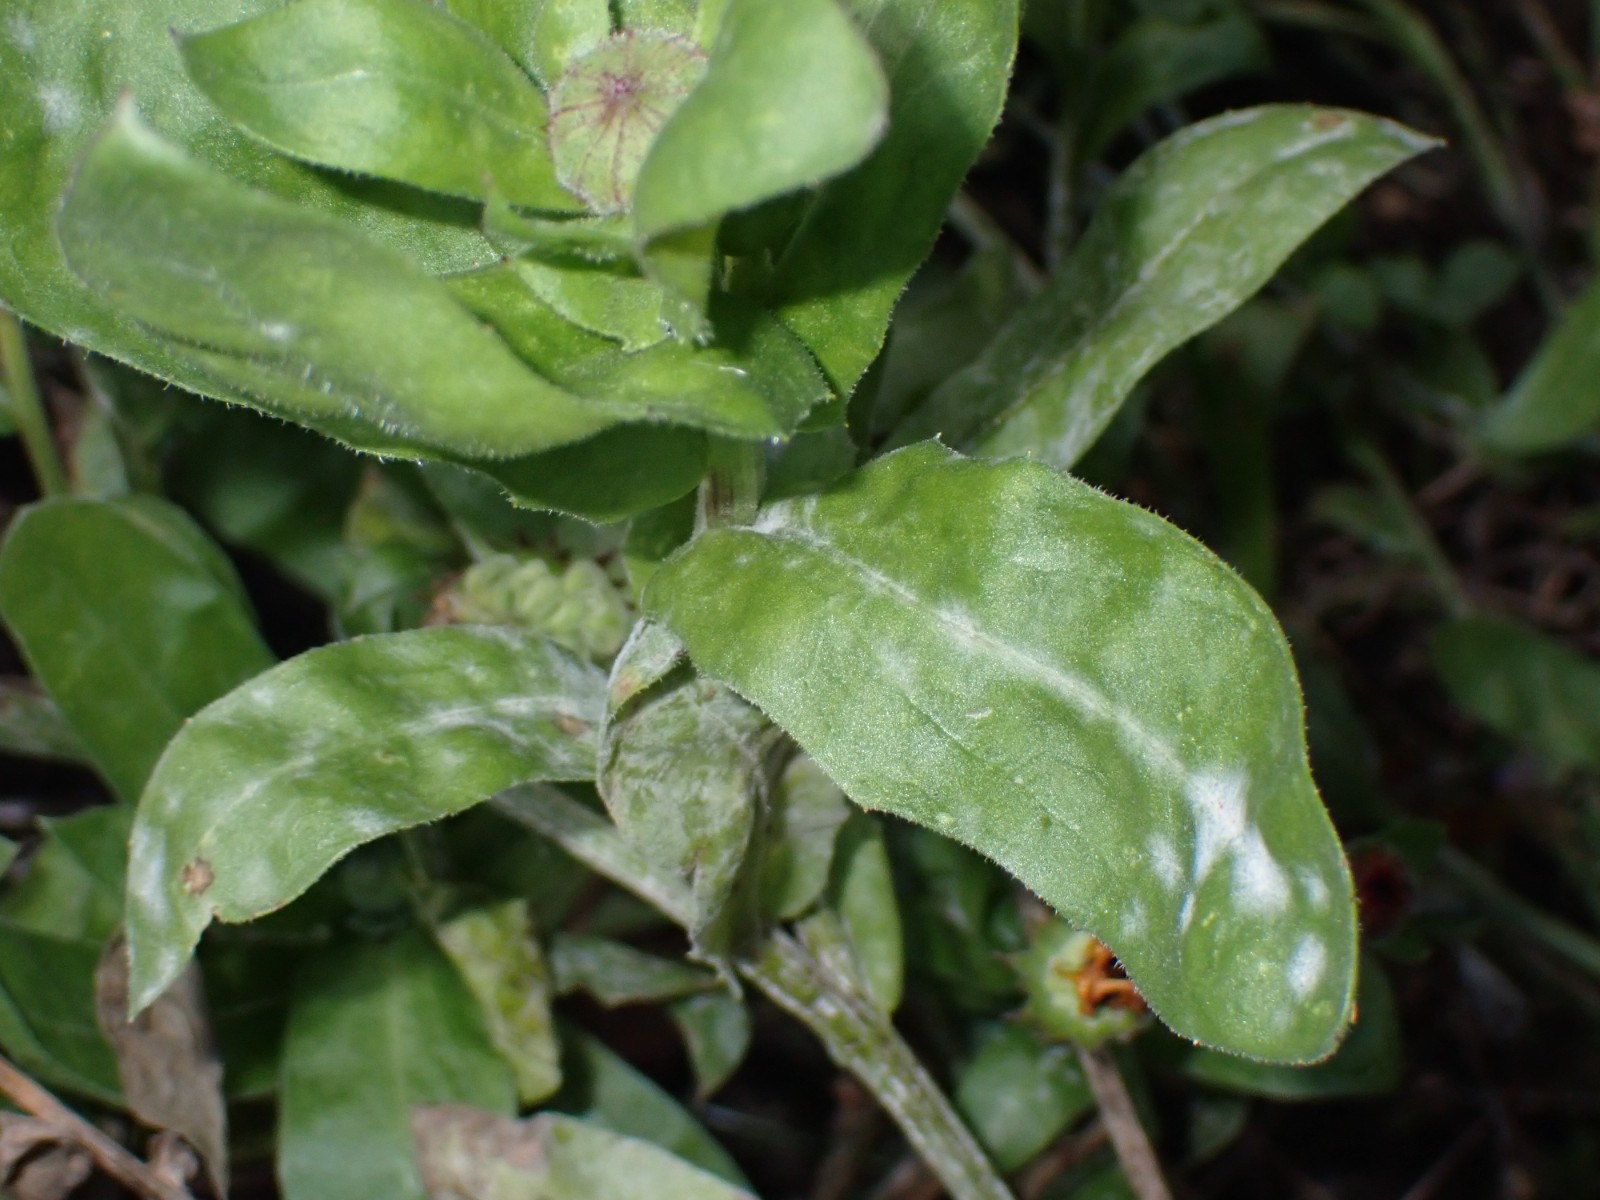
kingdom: Fungi
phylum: Ascomycota
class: Leotiomycetes
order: Helotiales
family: Erysiphaceae
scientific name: Erysiphaceae
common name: meldugfamilien
